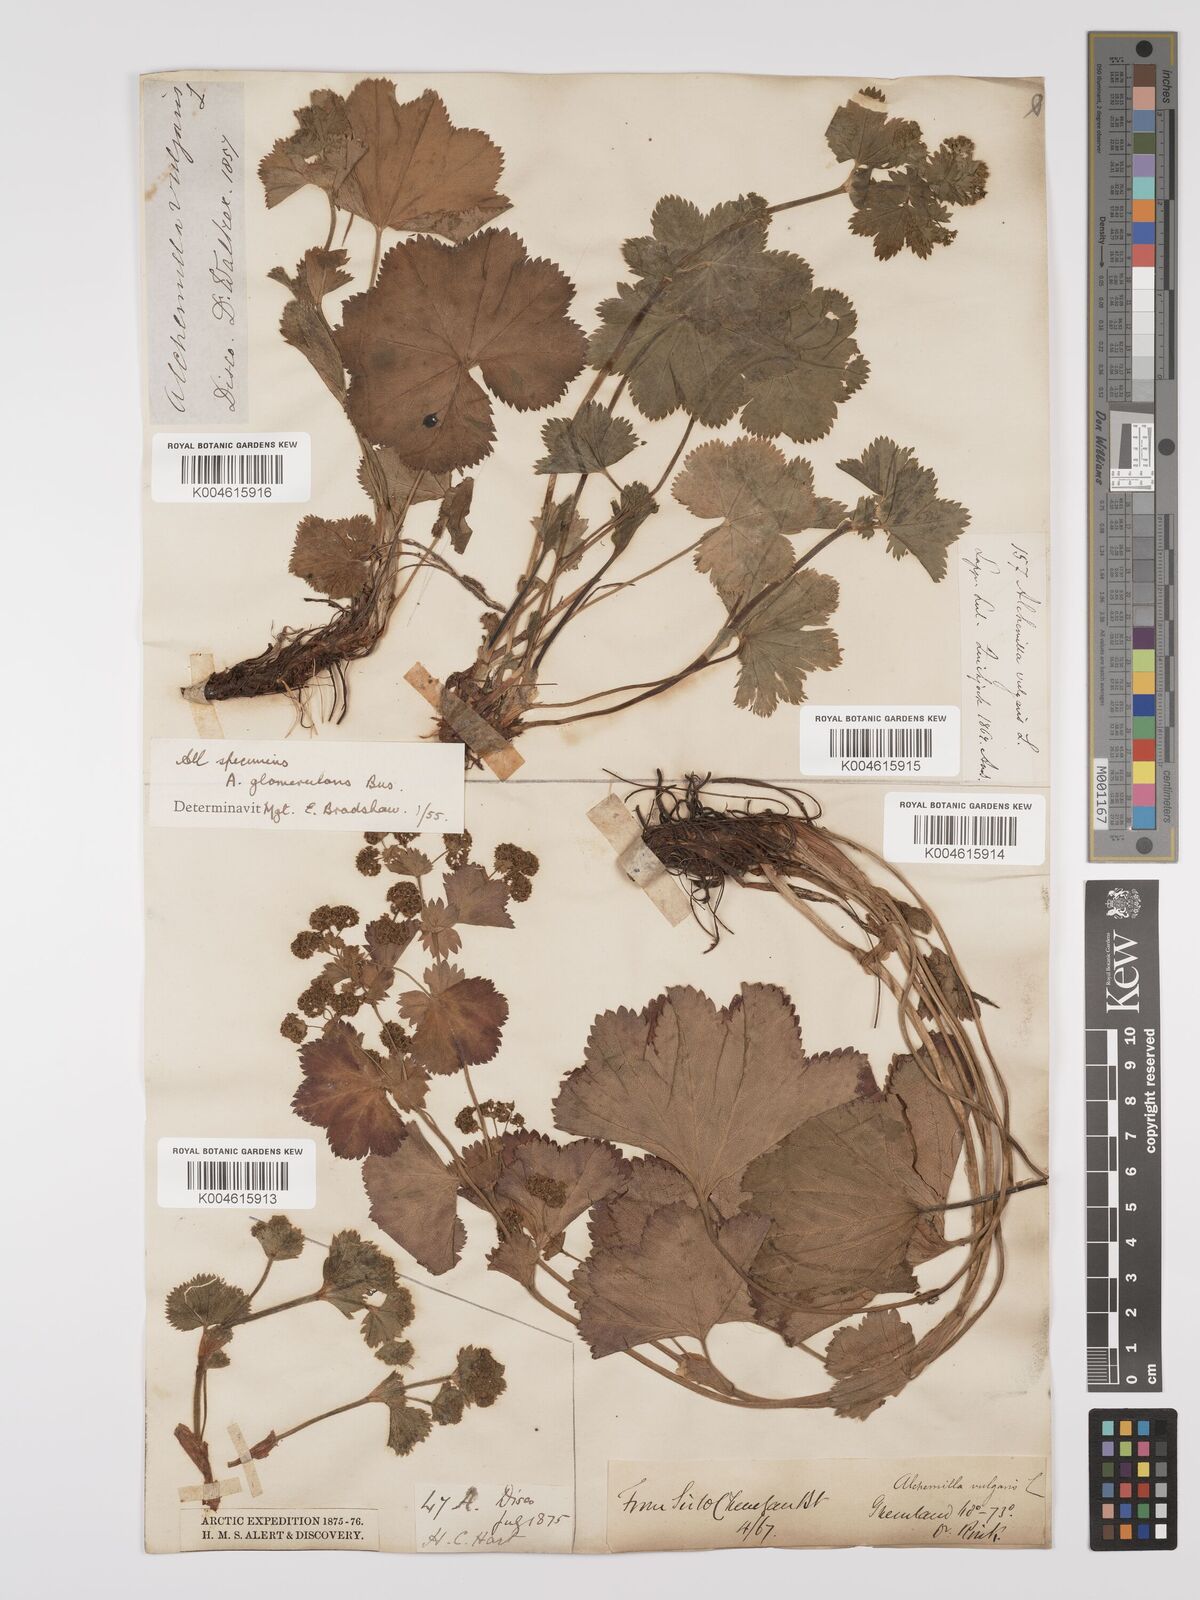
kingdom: Plantae
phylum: Tracheophyta
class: Magnoliopsida
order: Rosales
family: Rosaceae
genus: Alchemilla
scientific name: Alchemilla vulgaris
